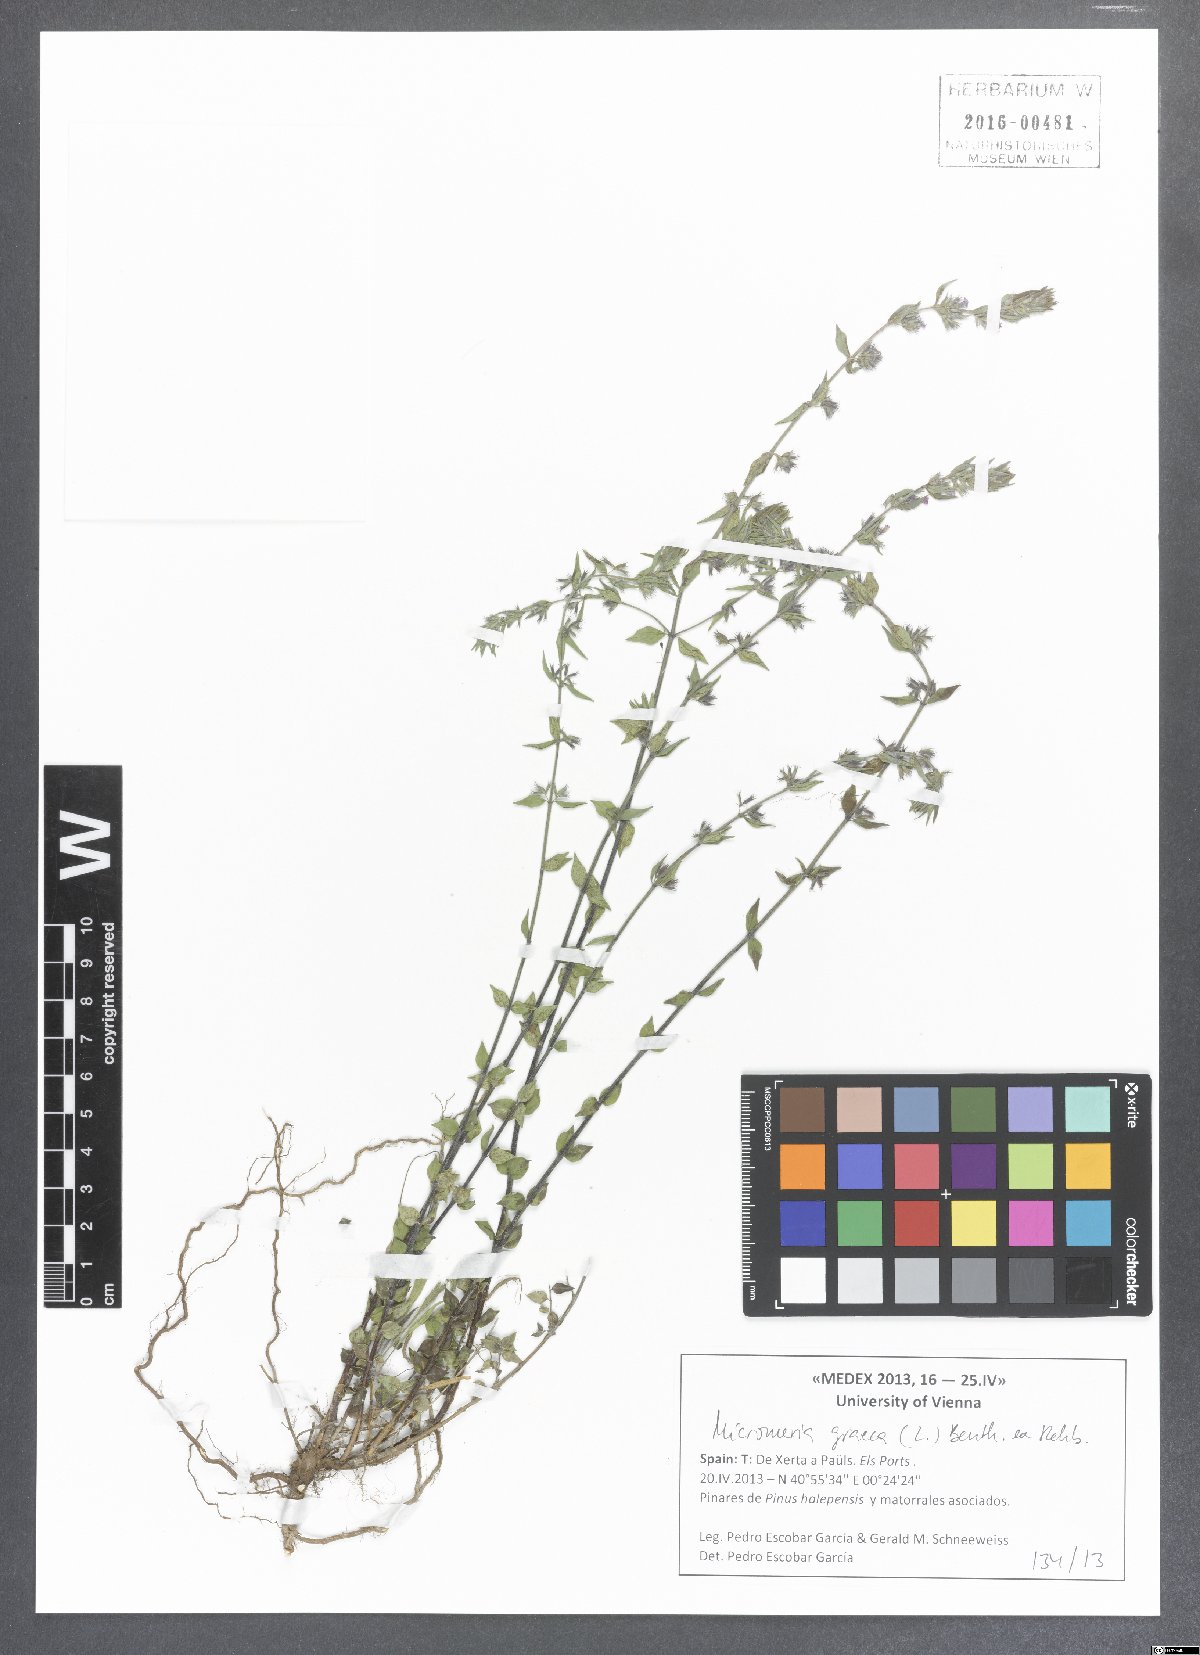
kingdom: Plantae
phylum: Tracheophyta
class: Magnoliopsida
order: Lamiales
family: Lamiaceae
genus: Micromeria
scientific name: Micromeria graeca
